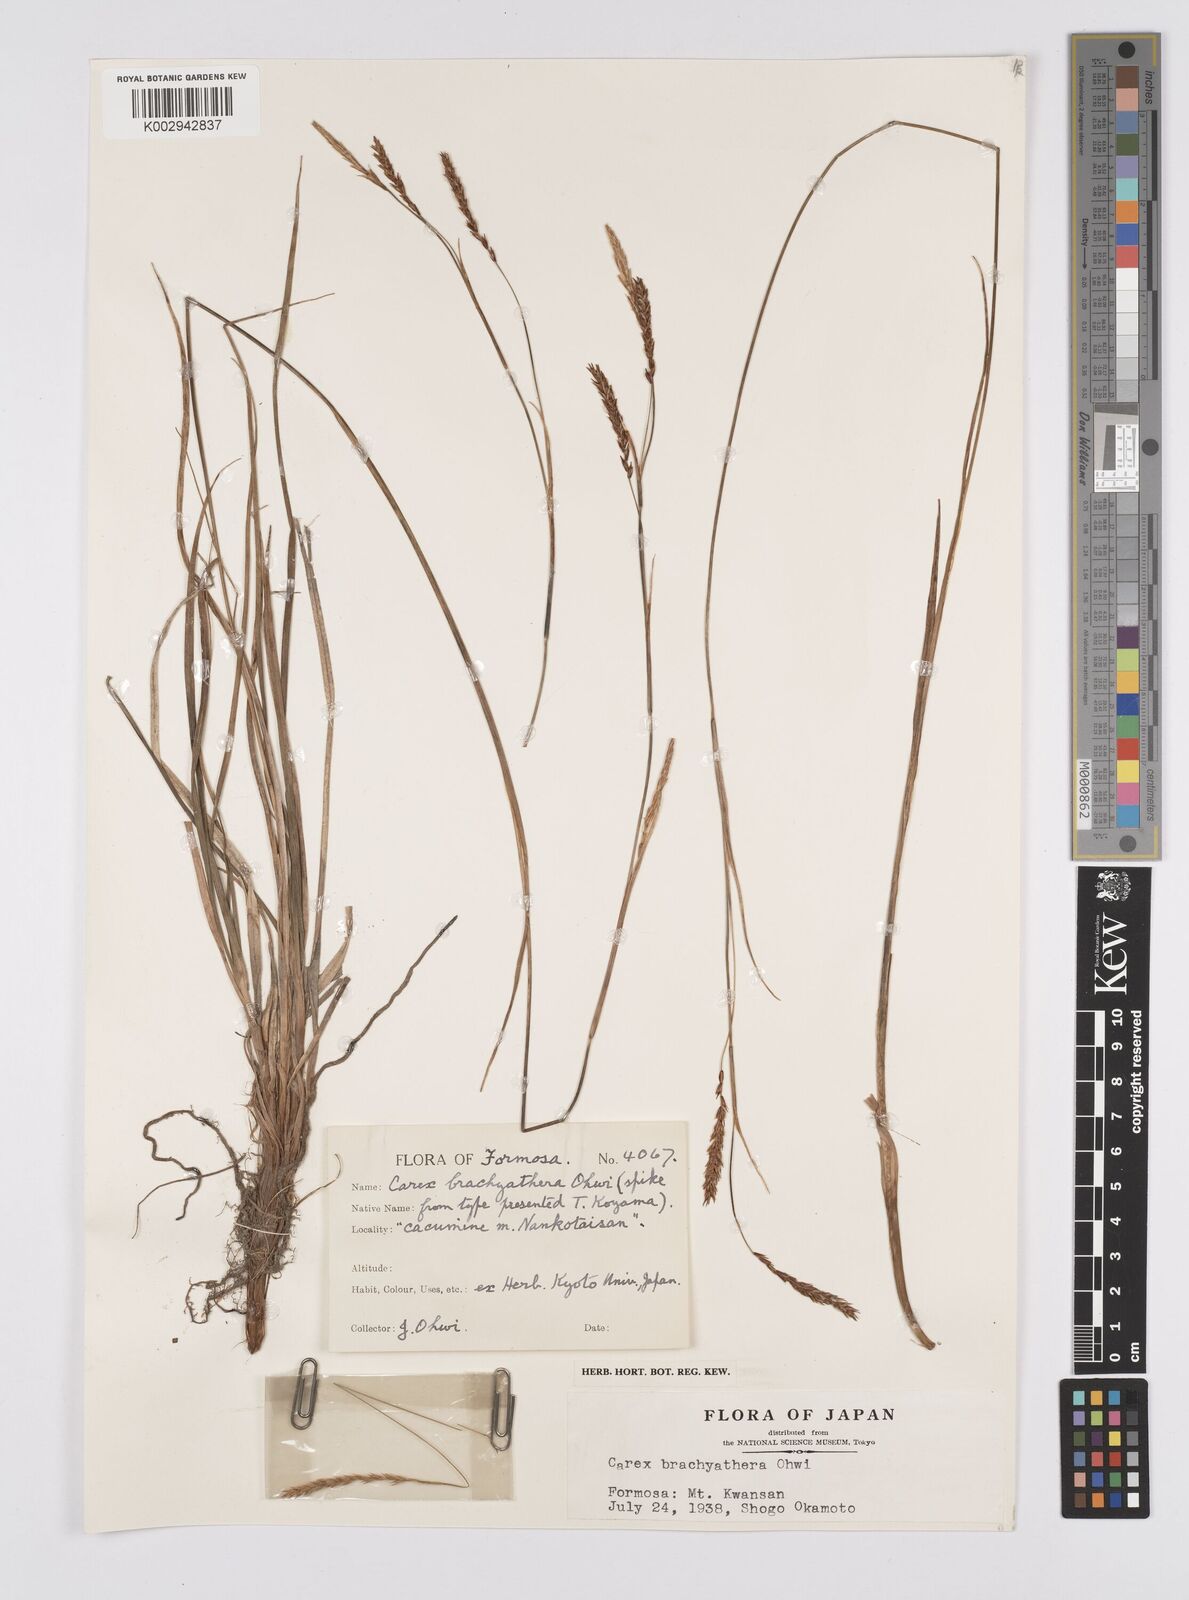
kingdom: Plantae
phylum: Tracheophyta
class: Liliopsida
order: Poales
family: Cyperaceae
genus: Carex
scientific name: Carex brachyanthera
